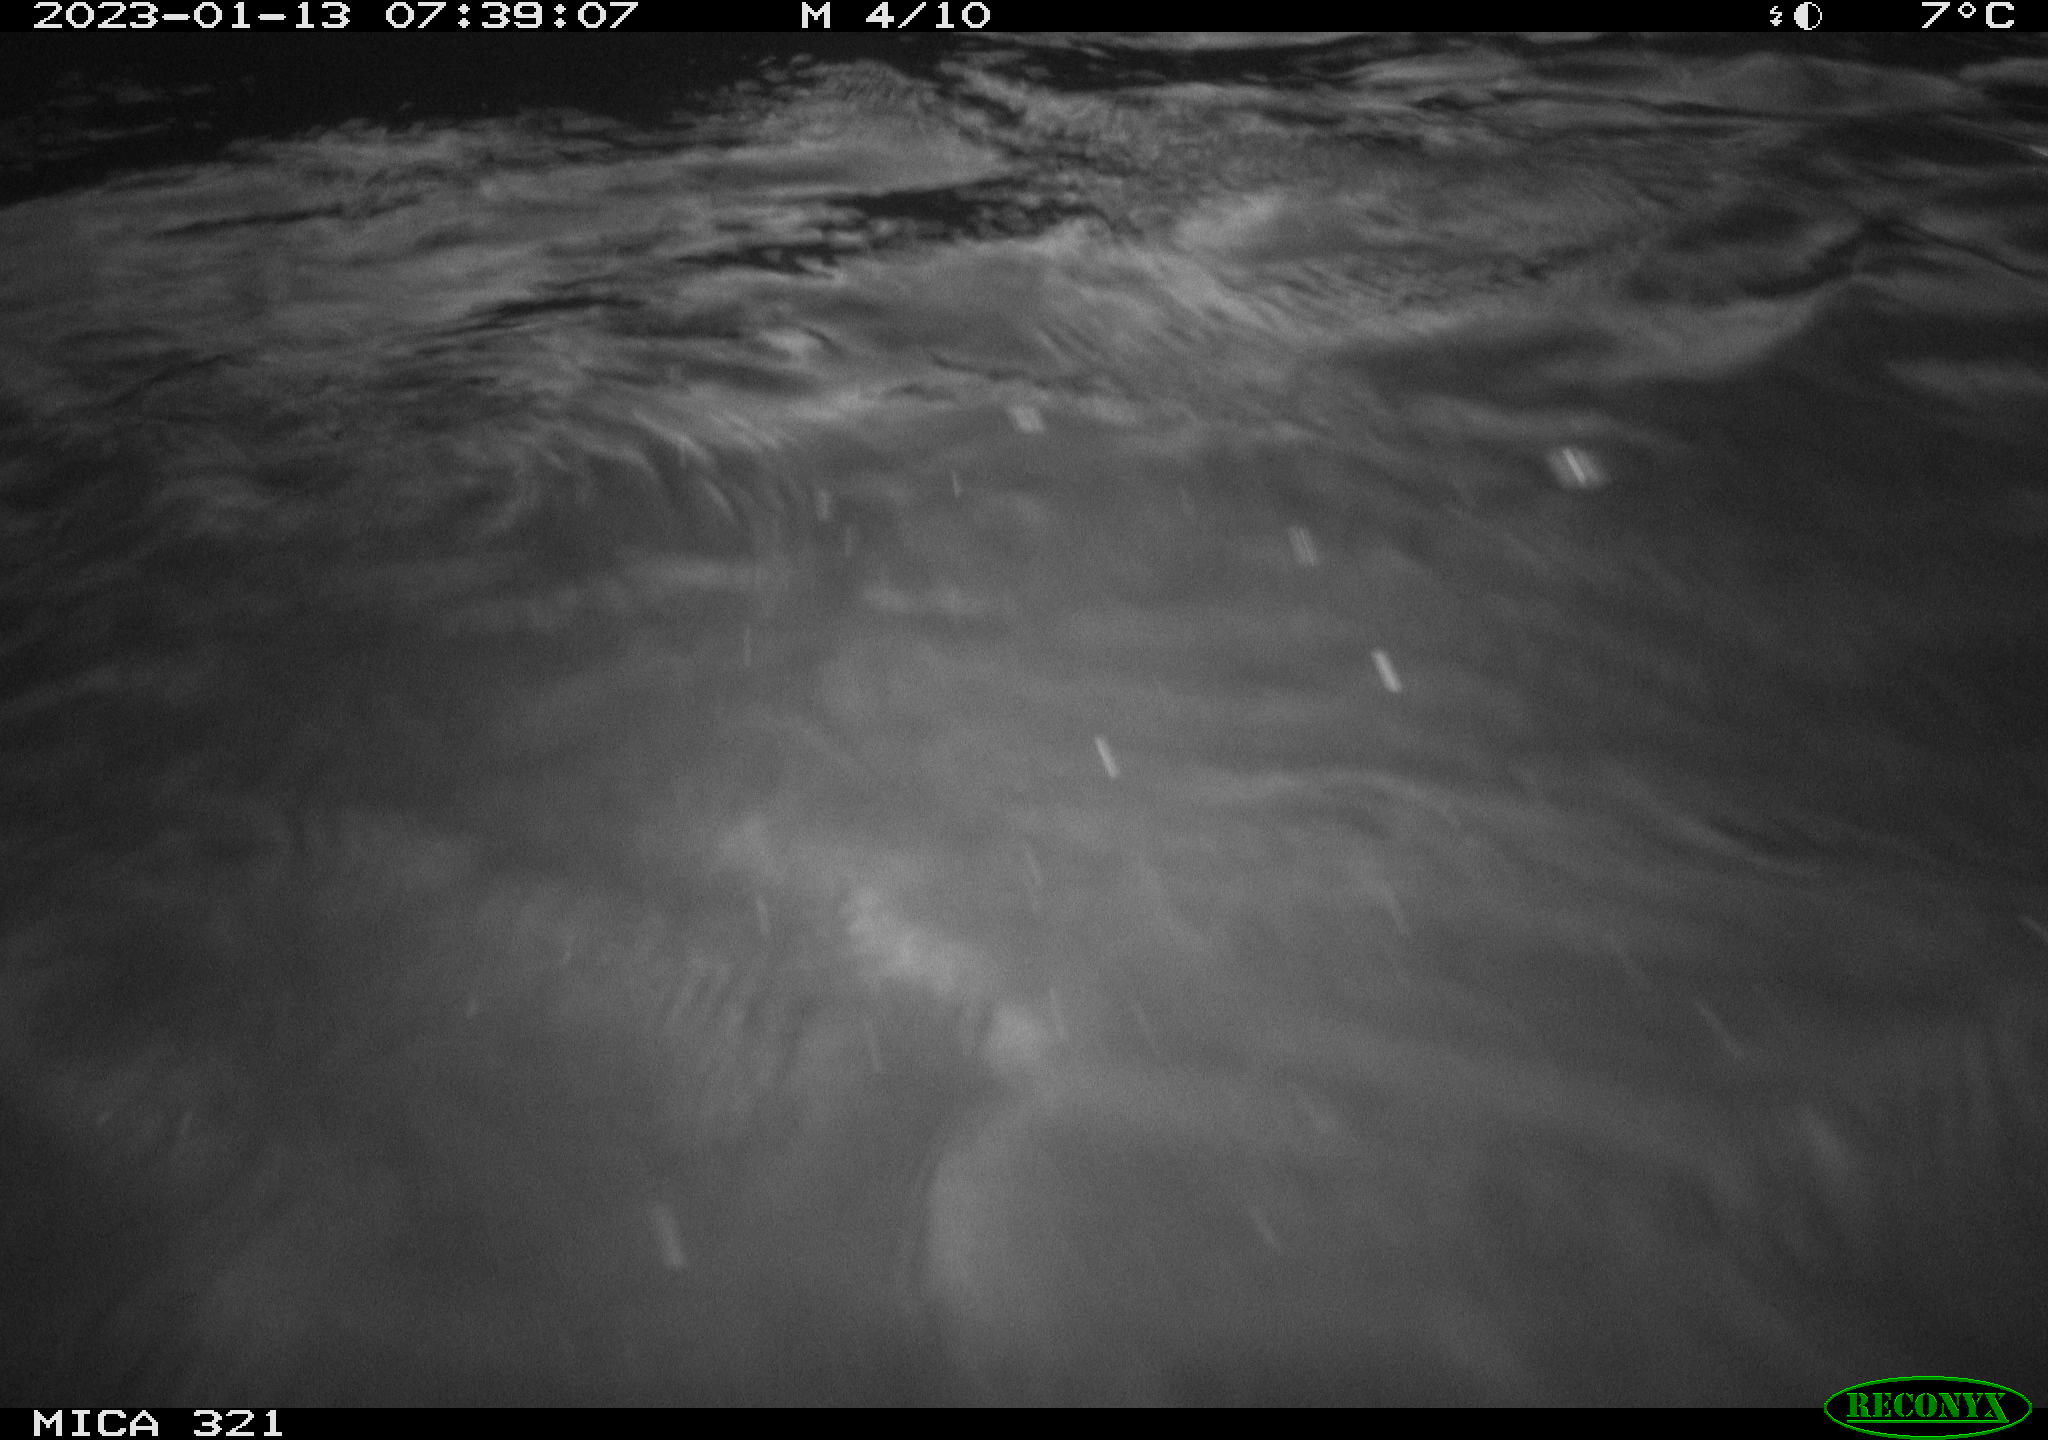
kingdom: Animalia
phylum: Chordata
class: Aves
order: Anseriformes
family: Anatidae
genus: Anas
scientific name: Anas
